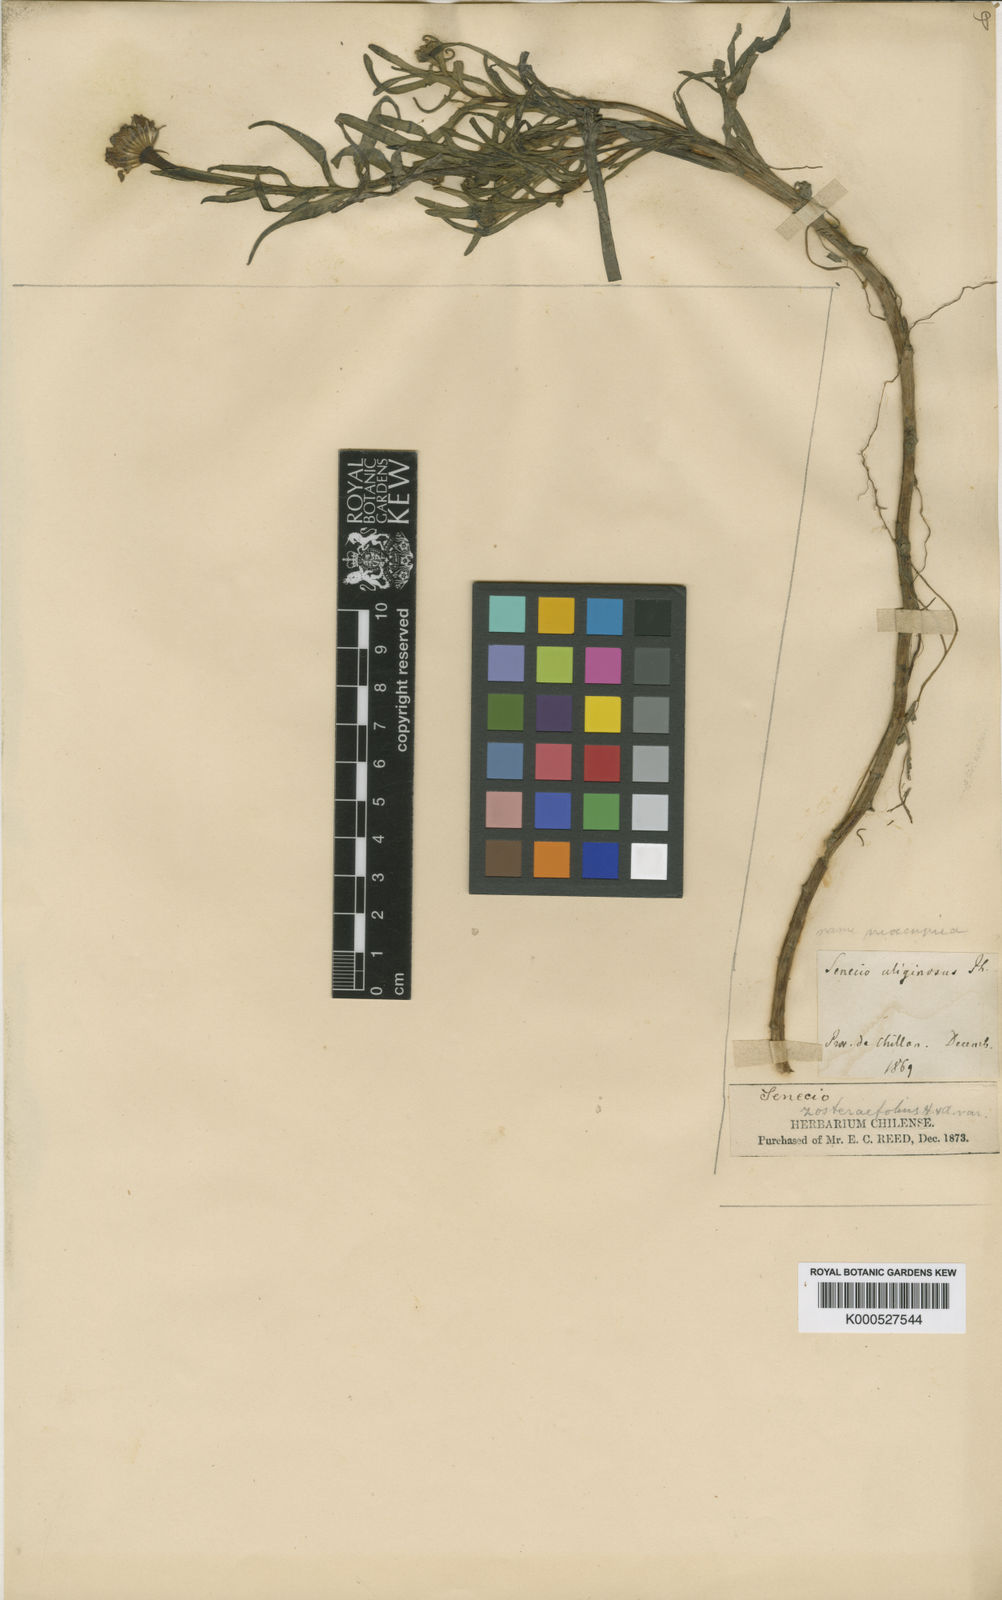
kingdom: Plantae
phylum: Tracheophyta
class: Magnoliopsida
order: Asterales
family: Asteraceae
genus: Haplosticha
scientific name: Haplosticha zosterifolia
